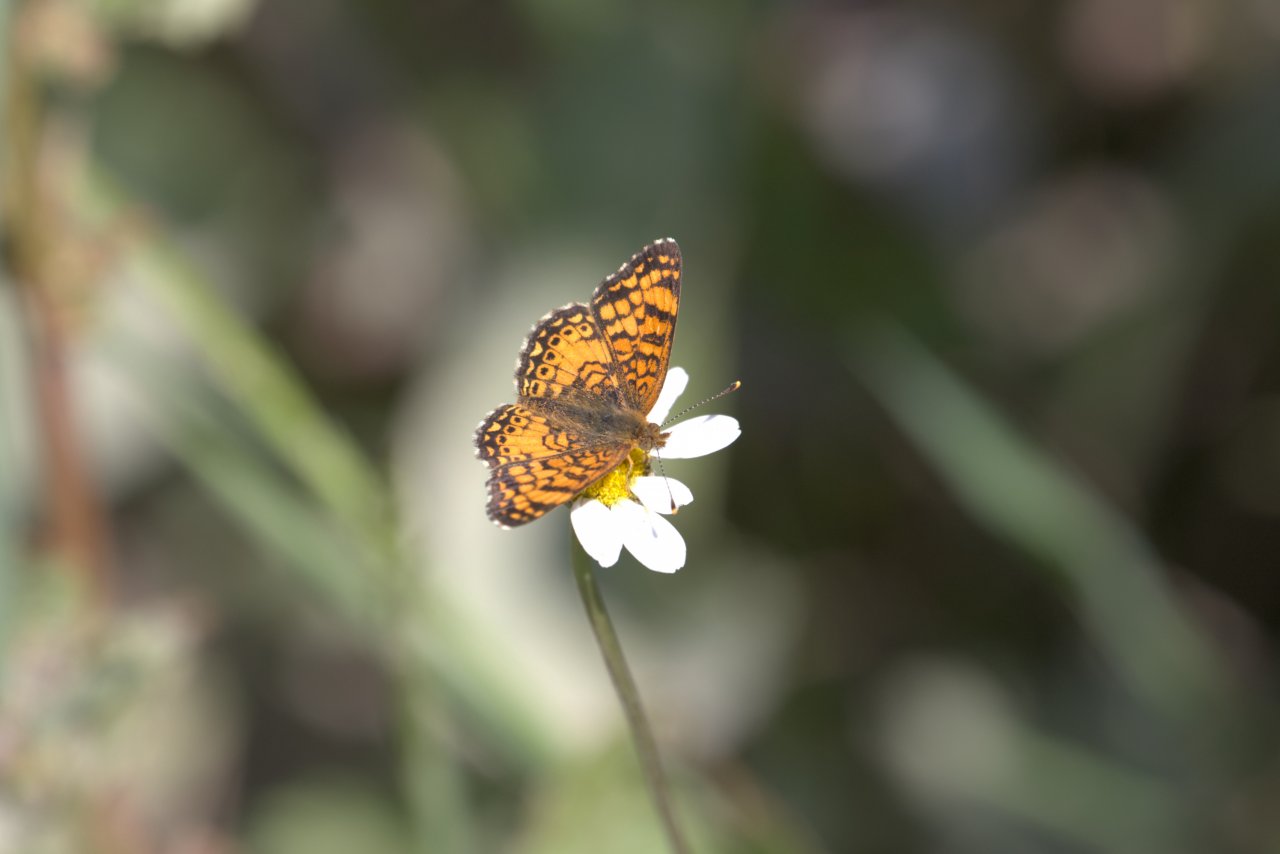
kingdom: Animalia
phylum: Arthropoda
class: Insecta
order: Lepidoptera
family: Nymphalidae
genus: Eresia
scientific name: Eresia aveyrona
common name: Mylitta Crescent
